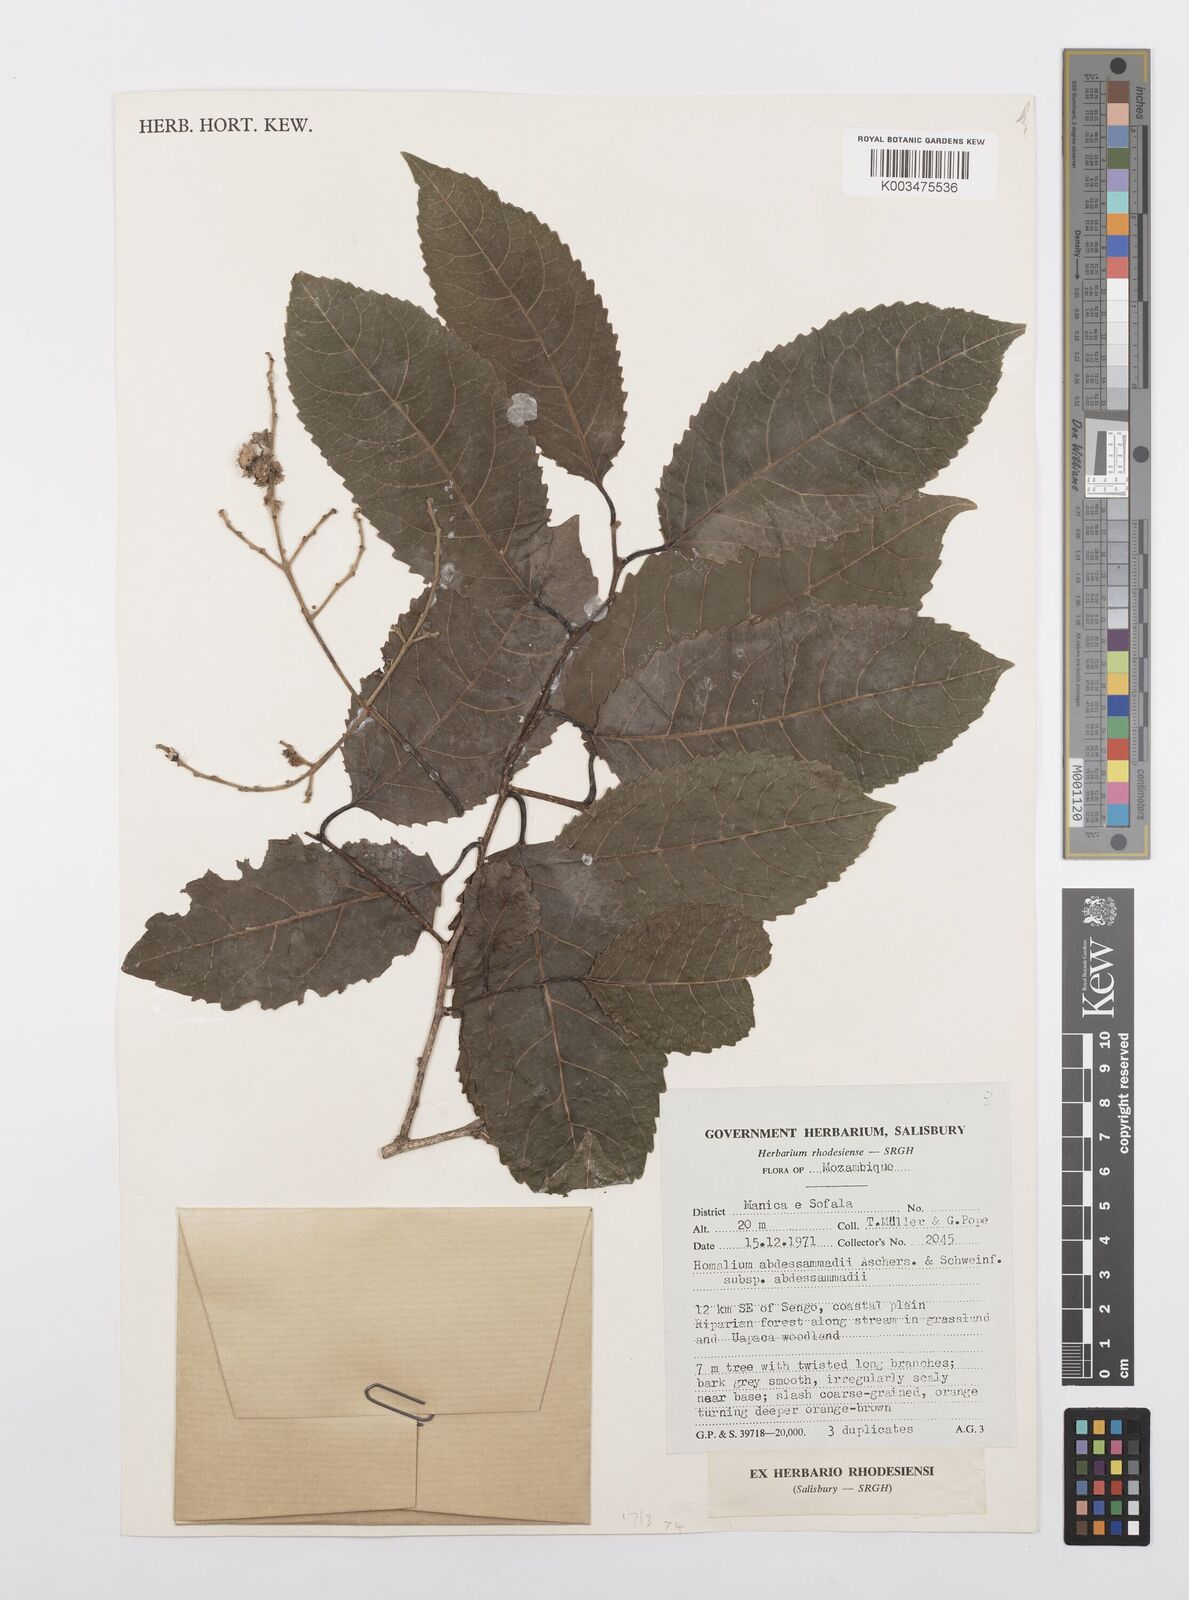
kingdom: Plantae
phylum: Tracheophyta
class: Magnoliopsida
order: Malpighiales
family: Salicaceae
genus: Homalium
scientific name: Homalium abdessammadii
